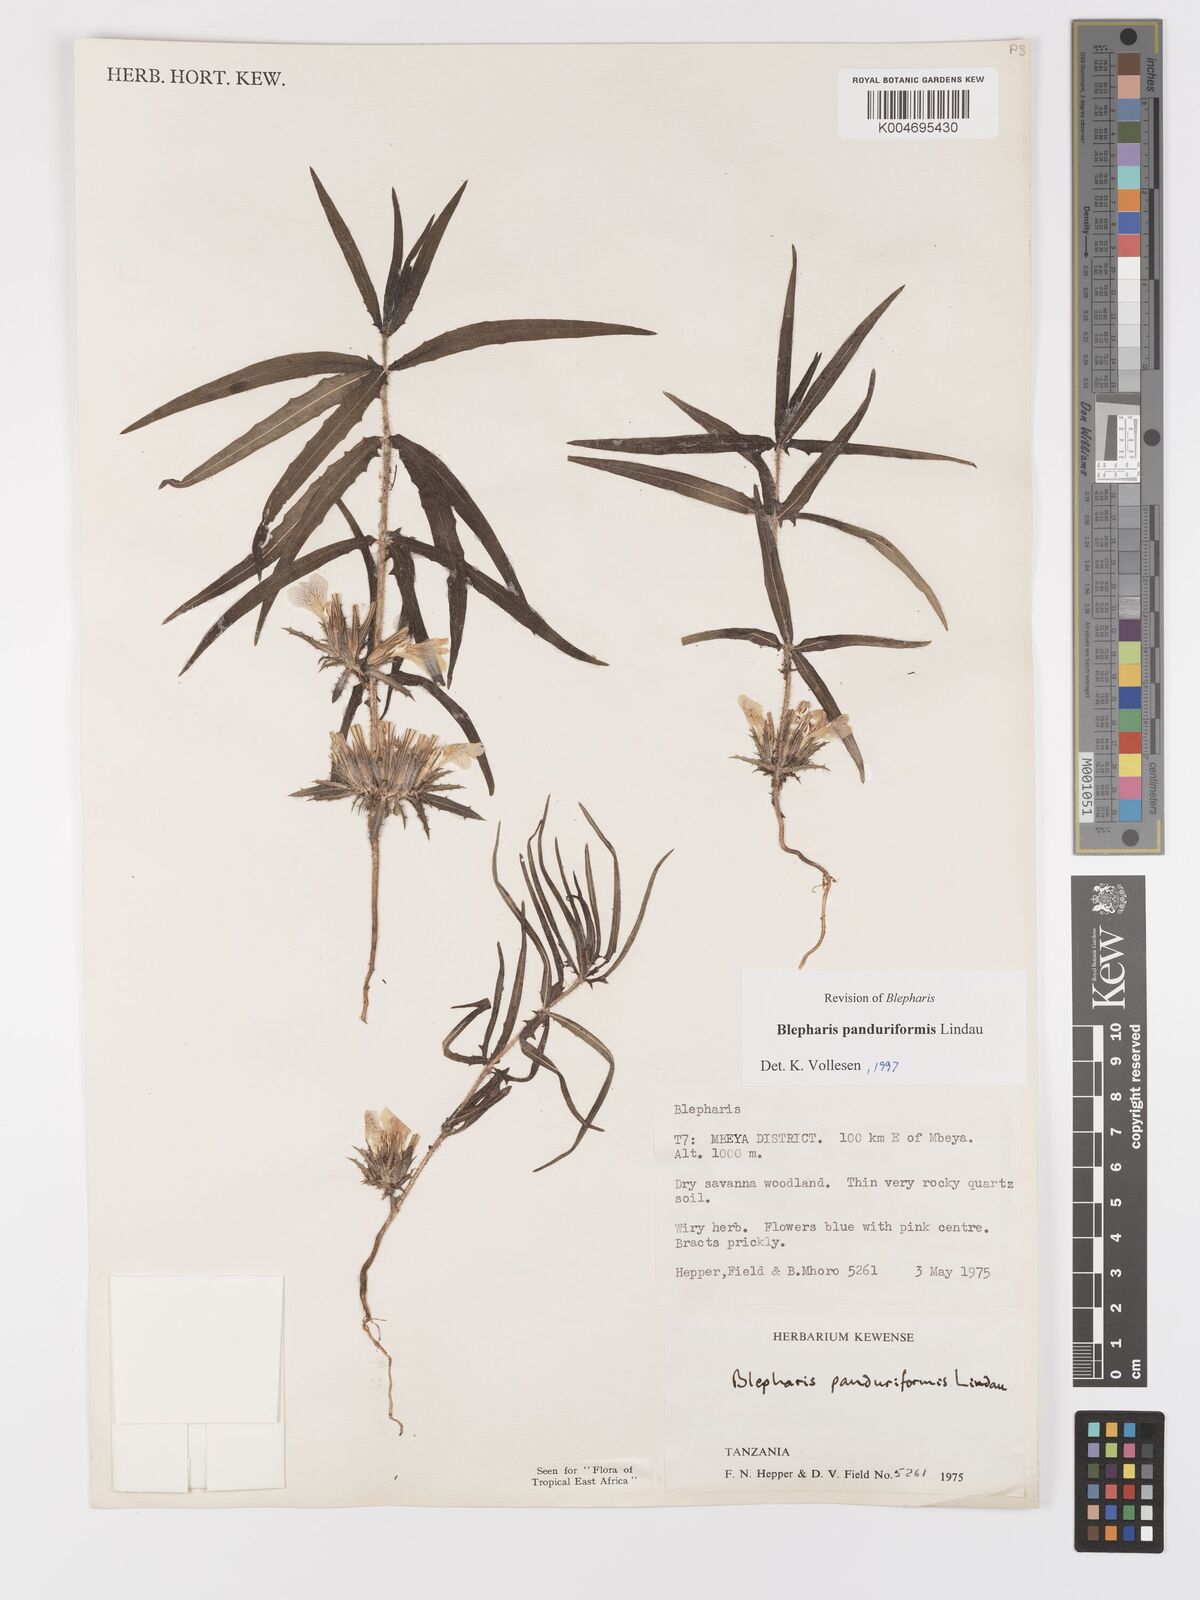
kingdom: Plantae
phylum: Tracheophyta
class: Magnoliopsida
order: Lamiales
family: Acanthaceae
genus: Blepharis
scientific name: Blepharis panduriformis
